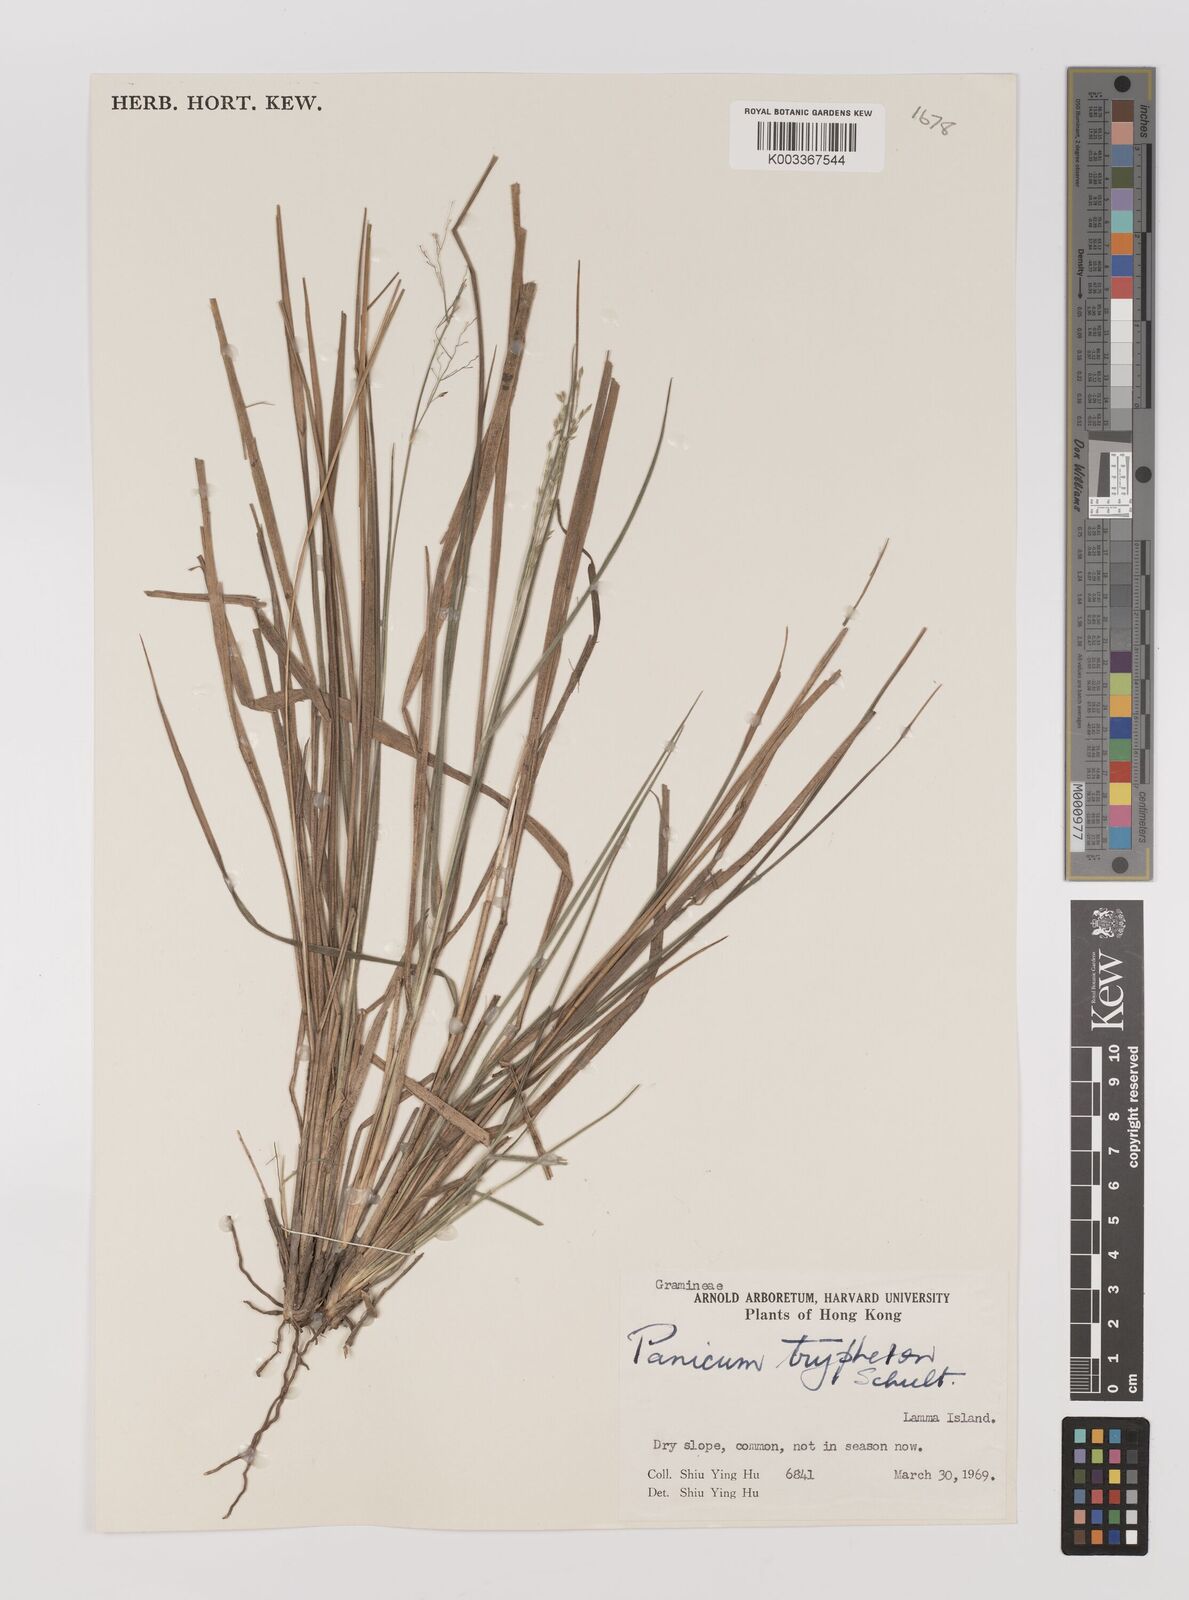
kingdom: Plantae
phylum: Tracheophyta
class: Liliopsida
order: Poales
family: Poaceae
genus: Panicum
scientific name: Panicum elegantissimum
